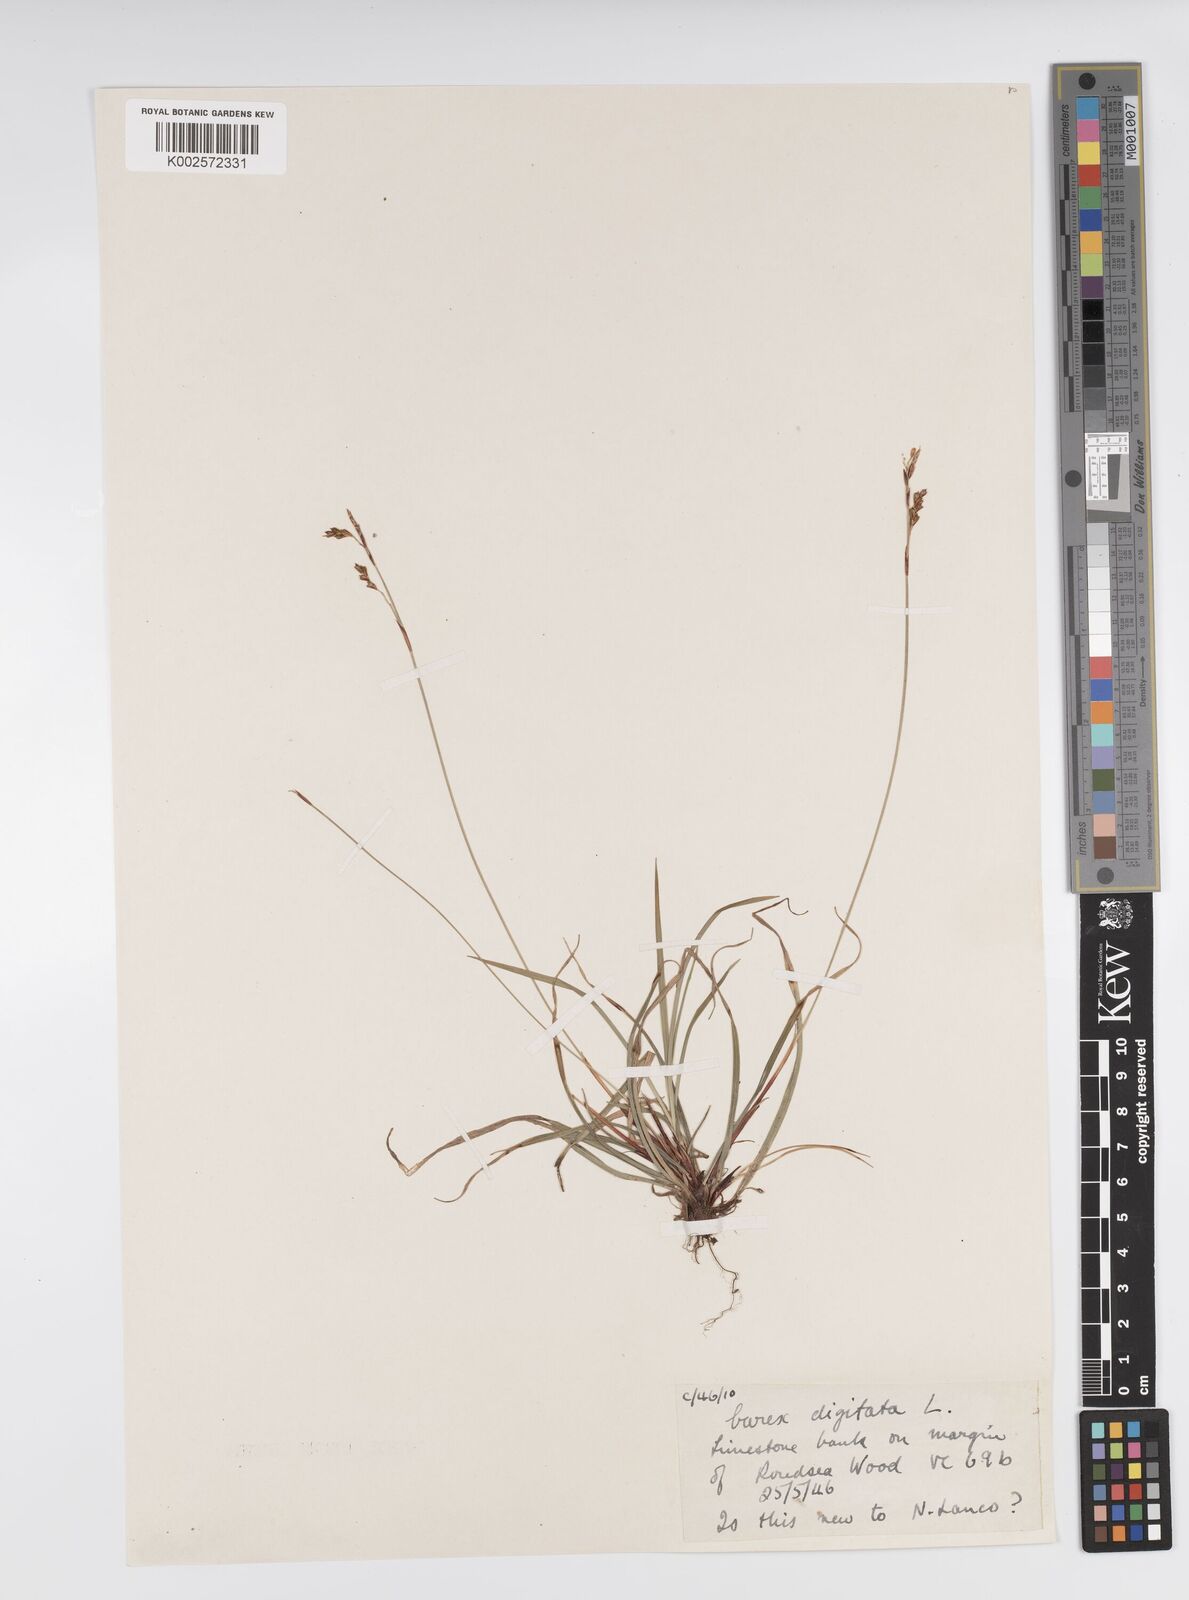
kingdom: Plantae
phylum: Tracheophyta
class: Liliopsida
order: Poales
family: Cyperaceae
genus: Carex
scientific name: Carex digitata
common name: Fingered sedge
